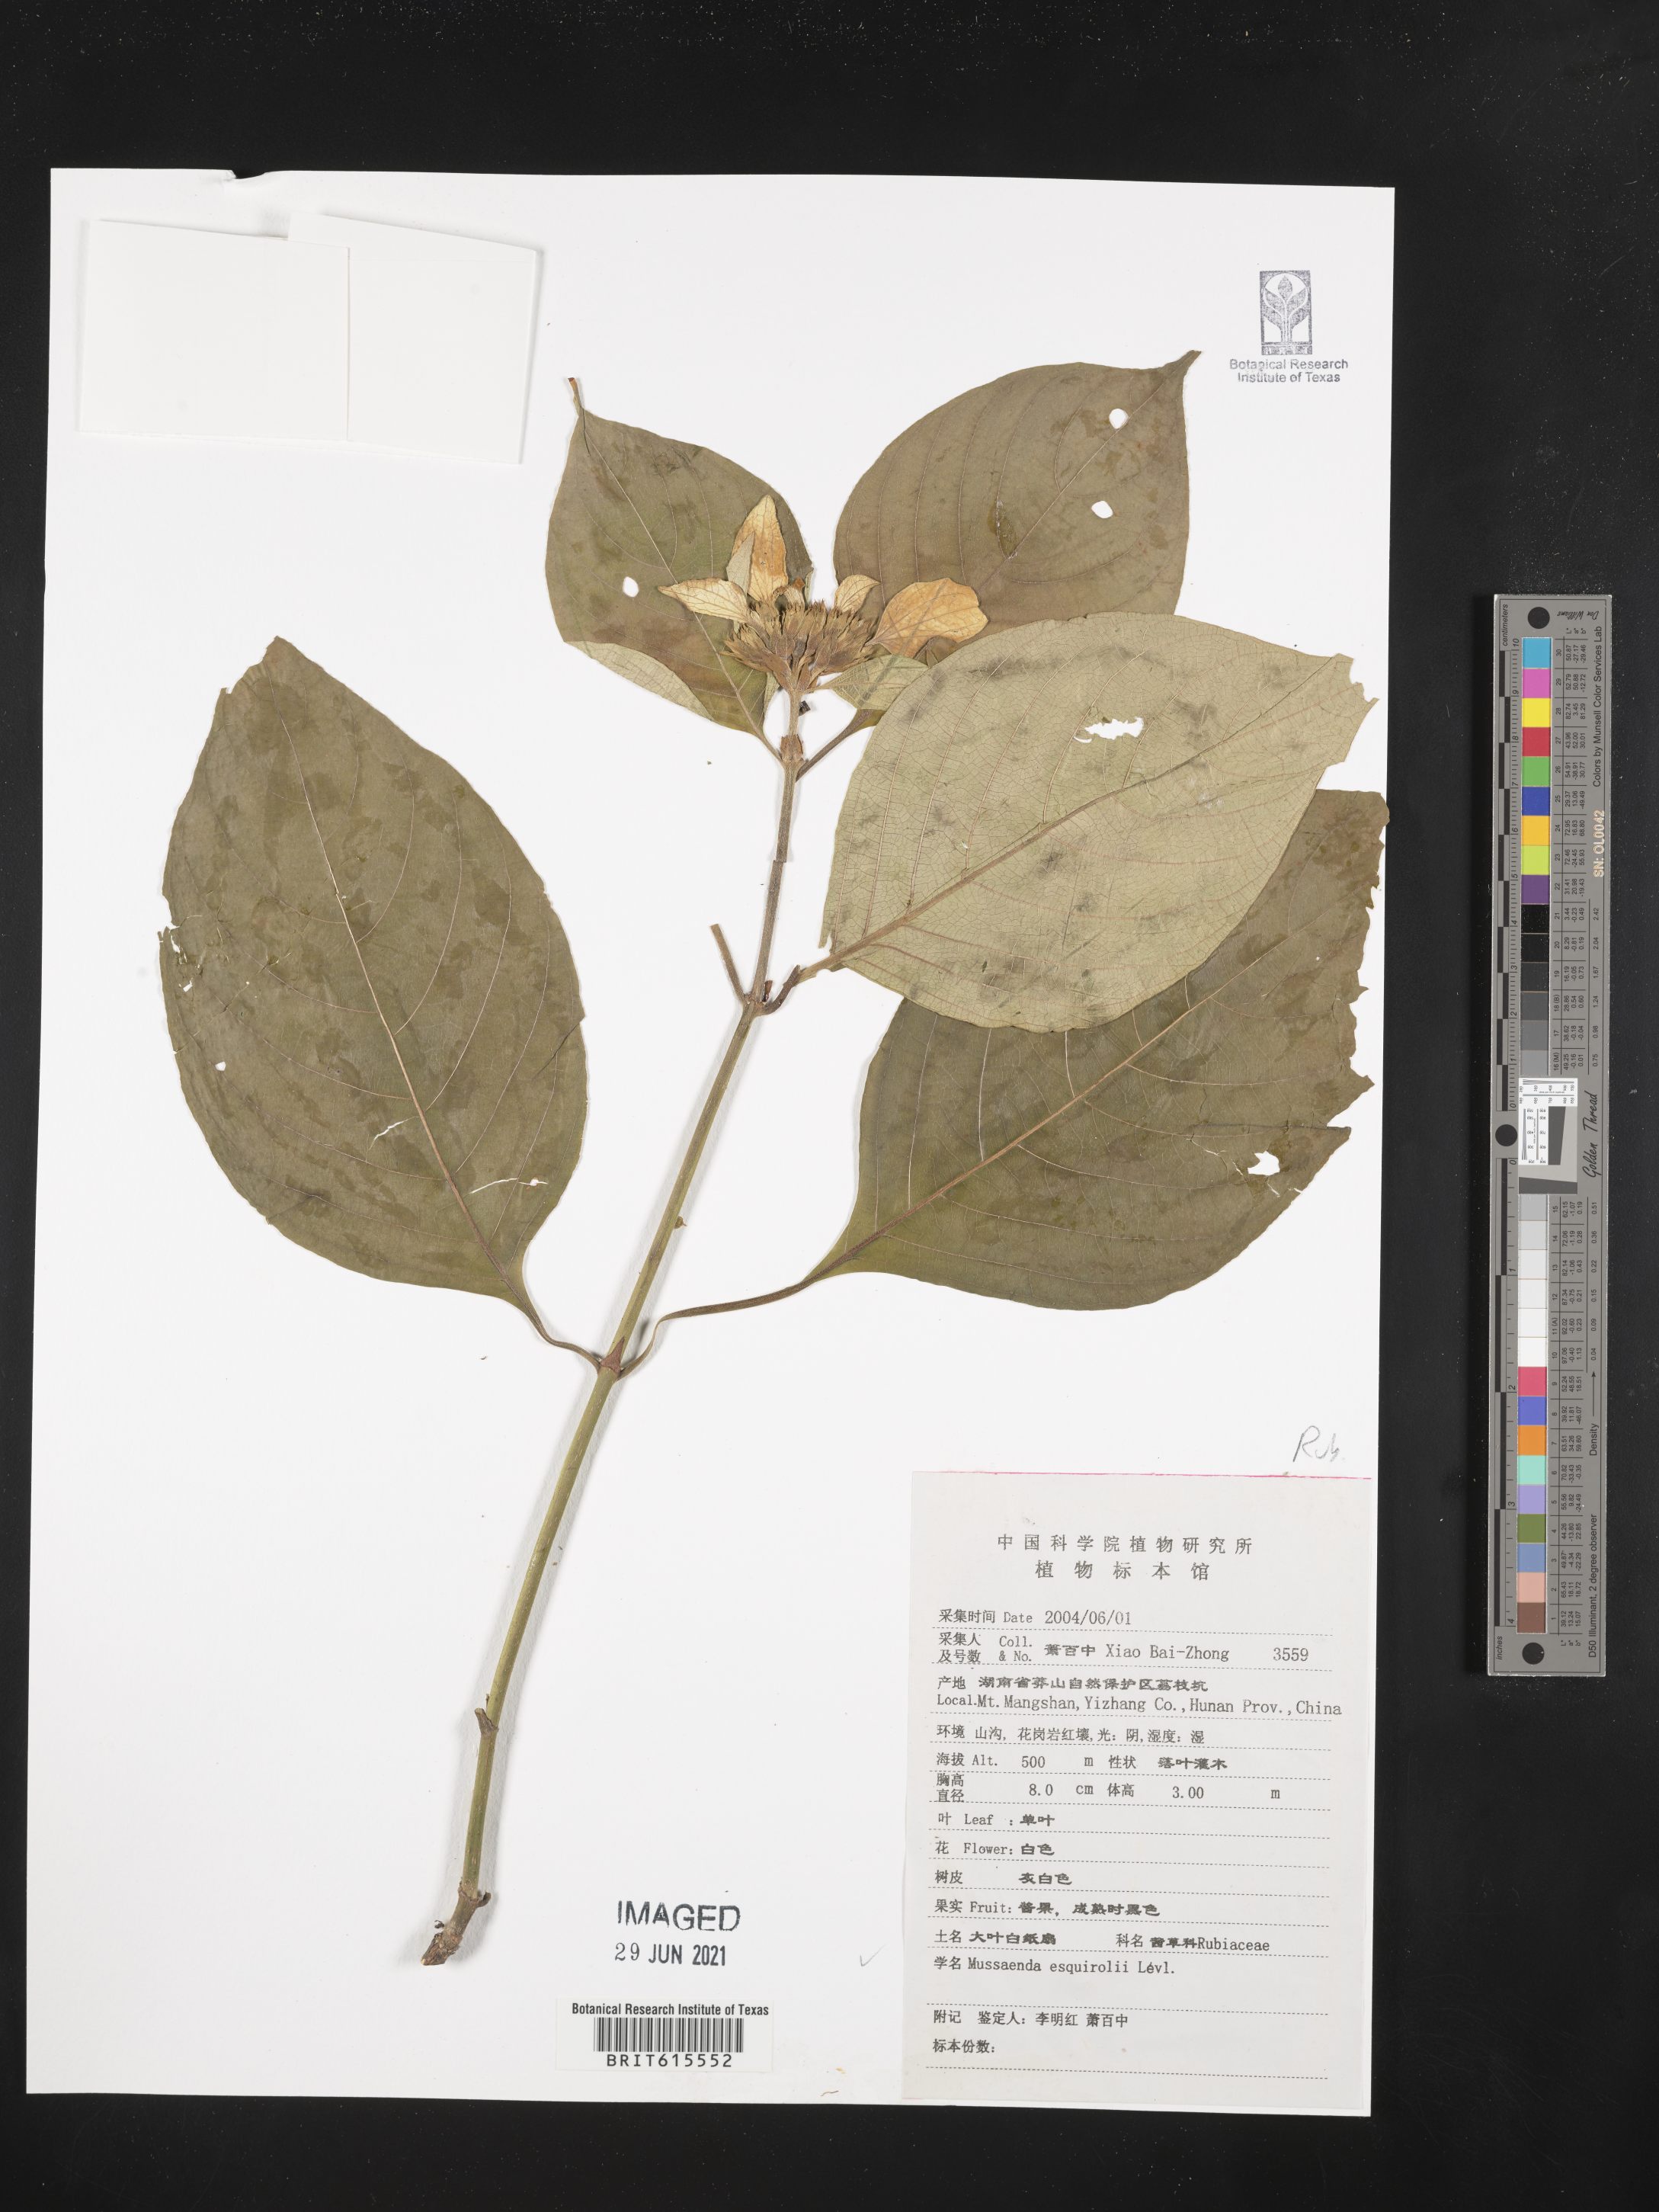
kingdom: Plantae
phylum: Tracheophyta
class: Magnoliopsida
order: Gentianales
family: Rubiaceae
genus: Mussaenda
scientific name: Mussaenda shikokiana
